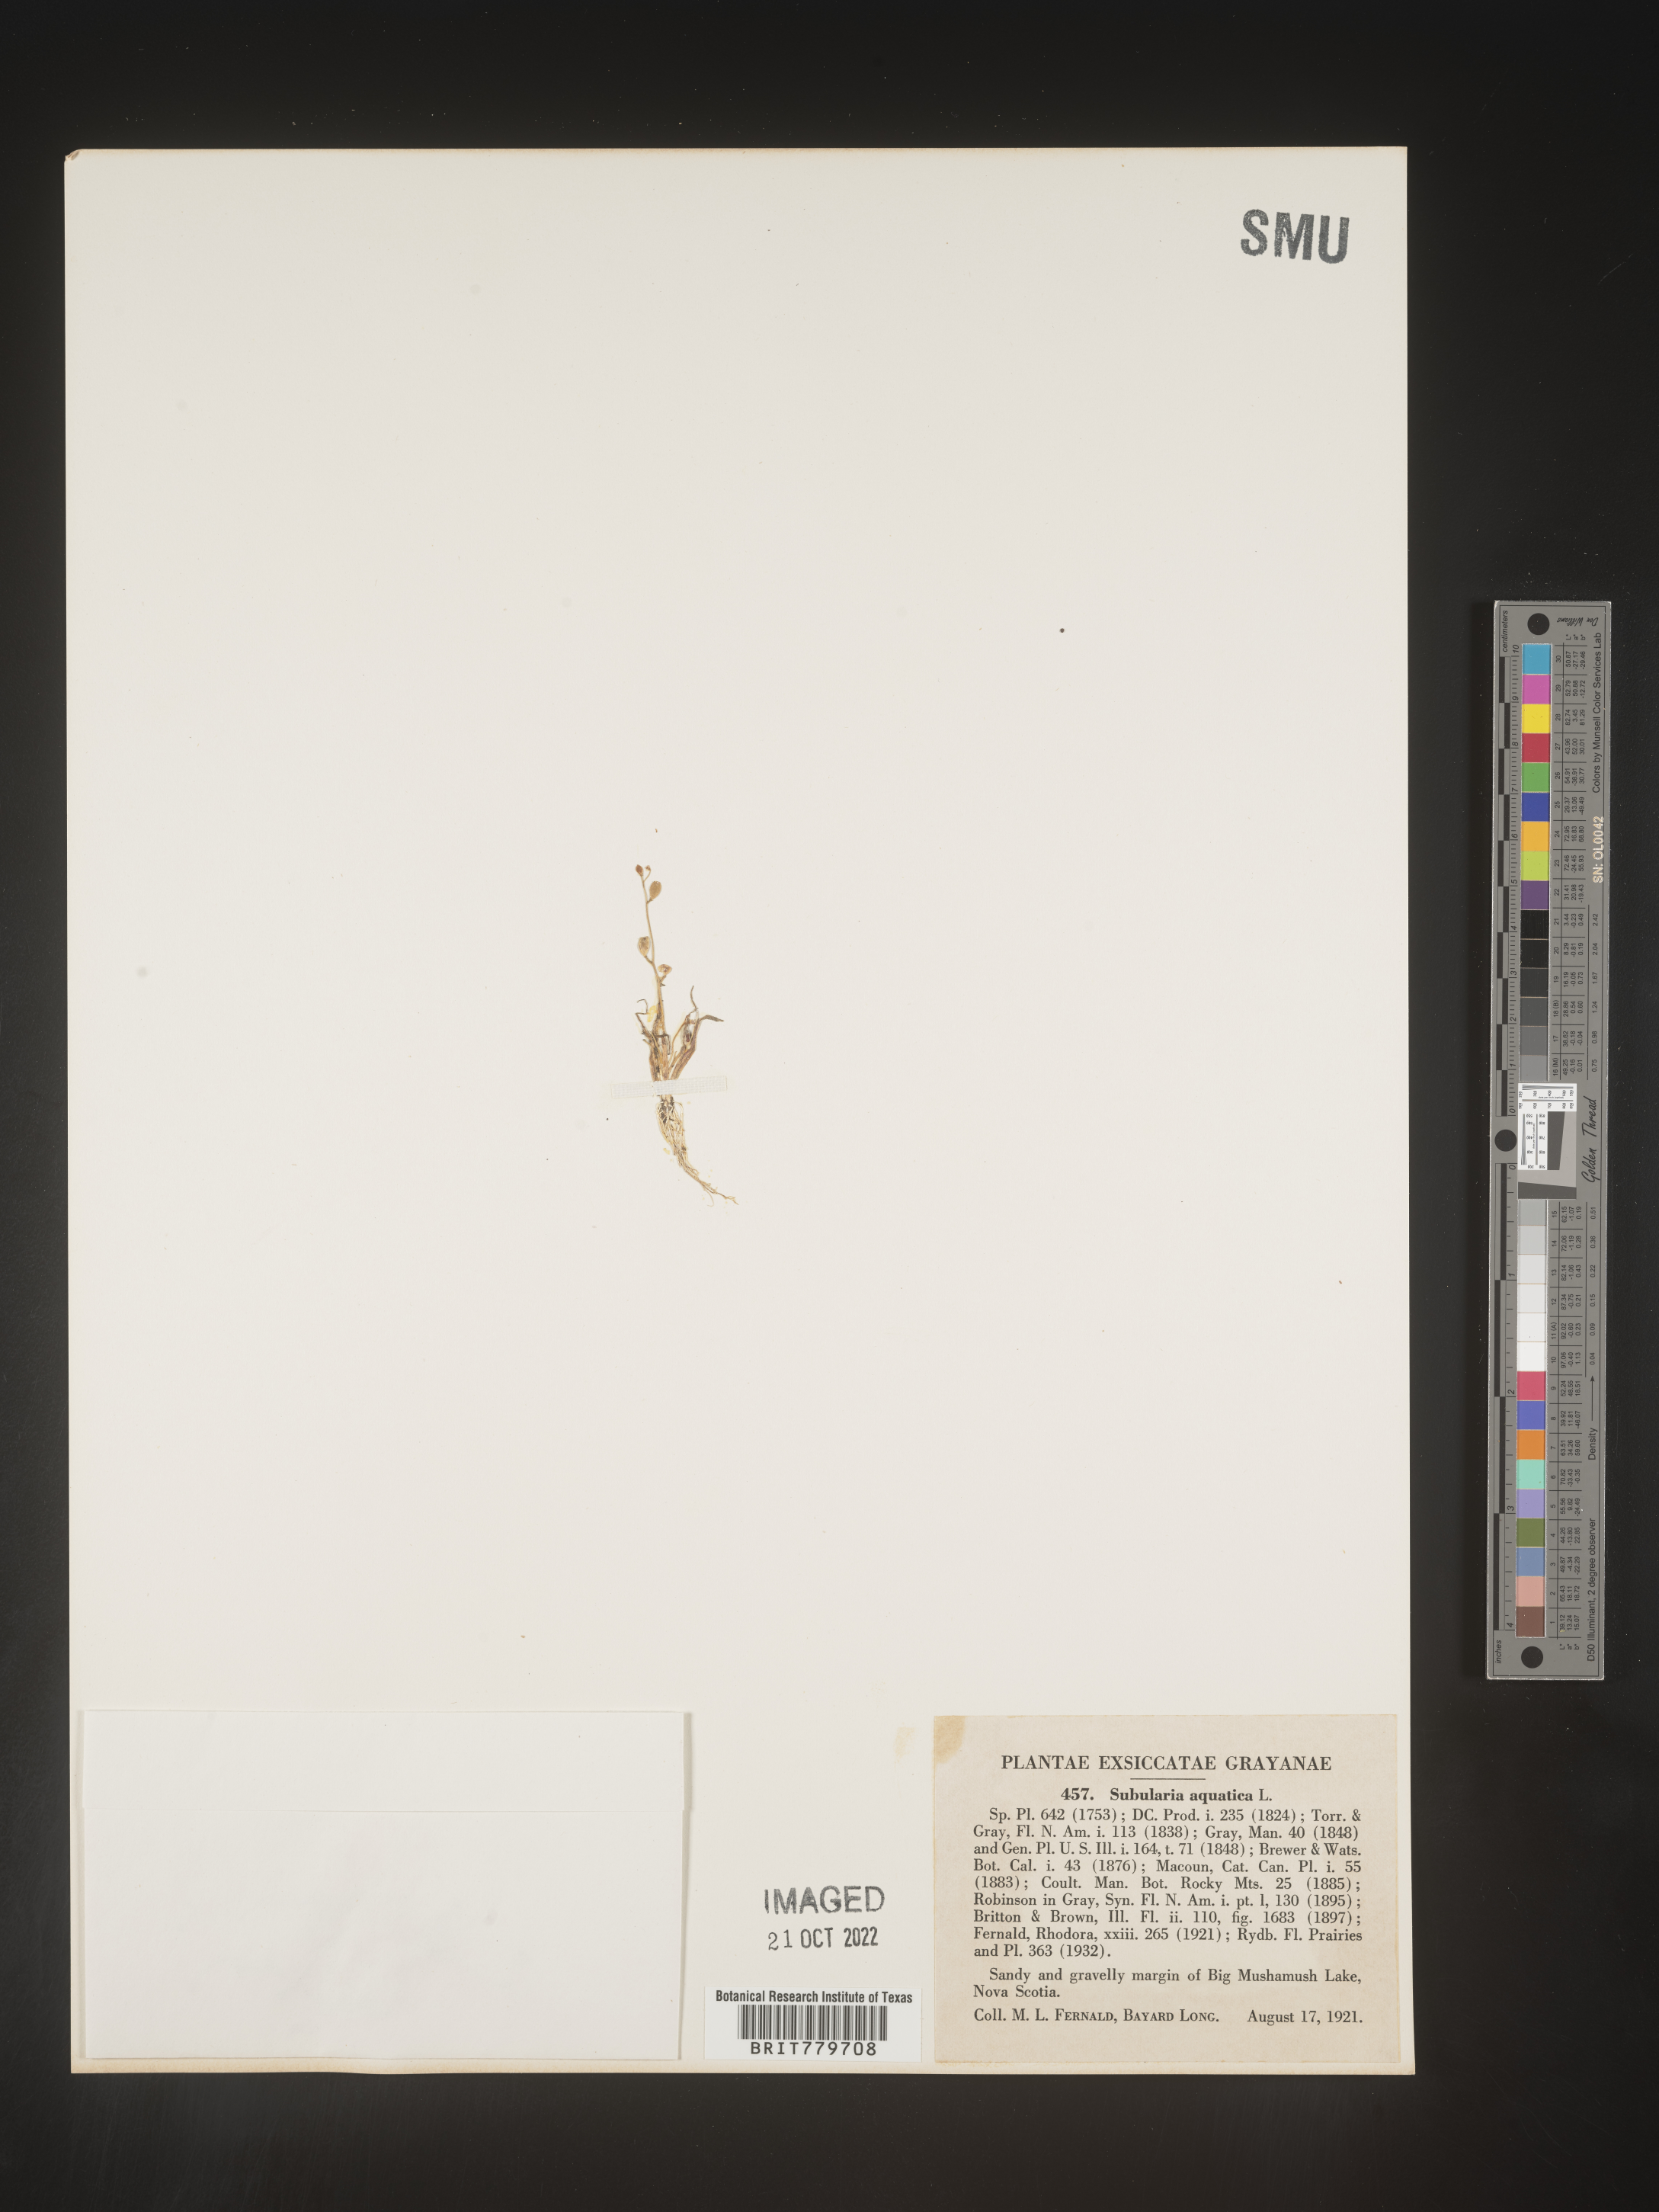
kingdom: Plantae
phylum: Tracheophyta
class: Magnoliopsida
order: Brassicales
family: Brassicaceae
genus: Subularia
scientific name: Subularia
